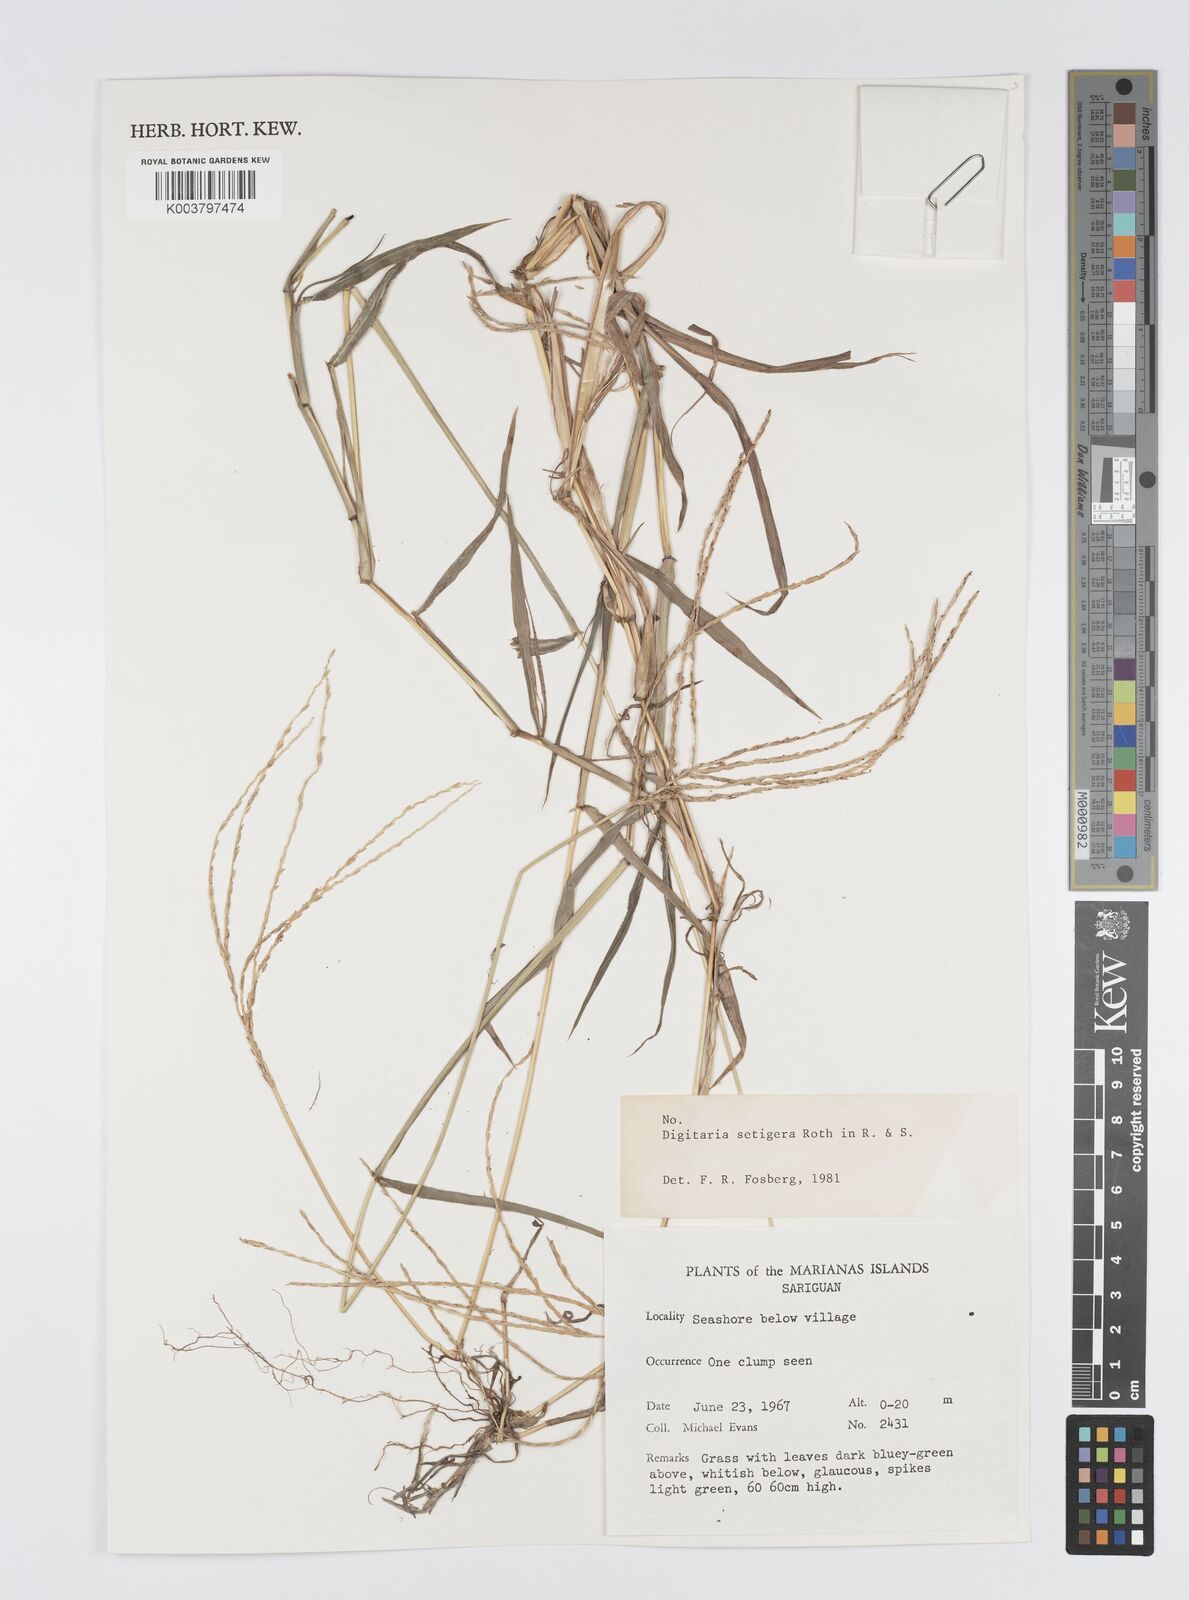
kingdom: Plantae
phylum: Tracheophyta
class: Liliopsida
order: Poales
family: Poaceae
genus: Digitaria
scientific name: Digitaria setigera
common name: East indian crabgrass
